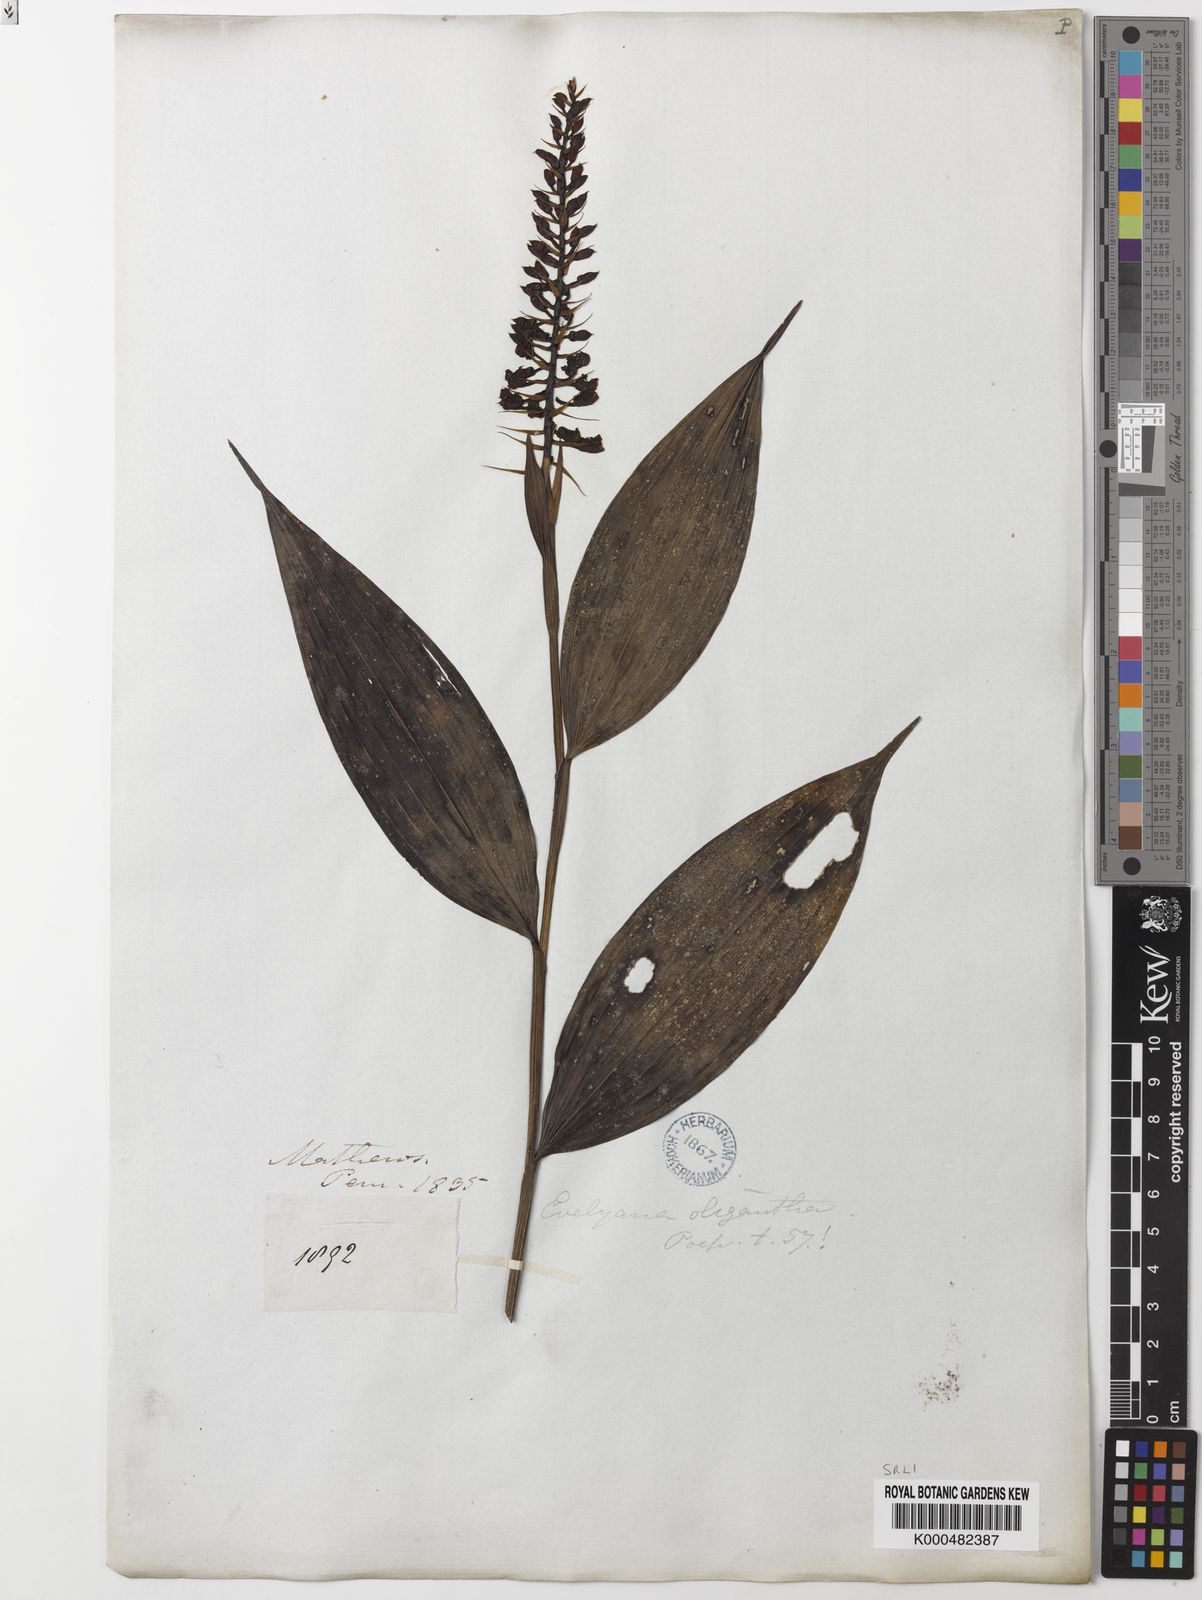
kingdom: Plantae
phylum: Tracheophyta
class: Liliopsida
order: Asparagales
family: Orchidaceae
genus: Elleanthus
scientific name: Elleanthus oliganthus
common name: Sparse blooming elleanthus
